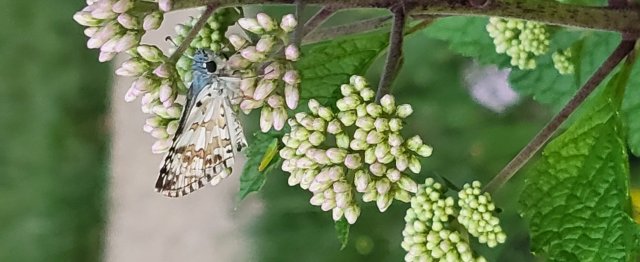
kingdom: Animalia
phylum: Arthropoda
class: Insecta
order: Lepidoptera
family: Hesperiidae
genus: Pyrgus
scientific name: Pyrgus communis
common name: Common Checkered-Skipper
